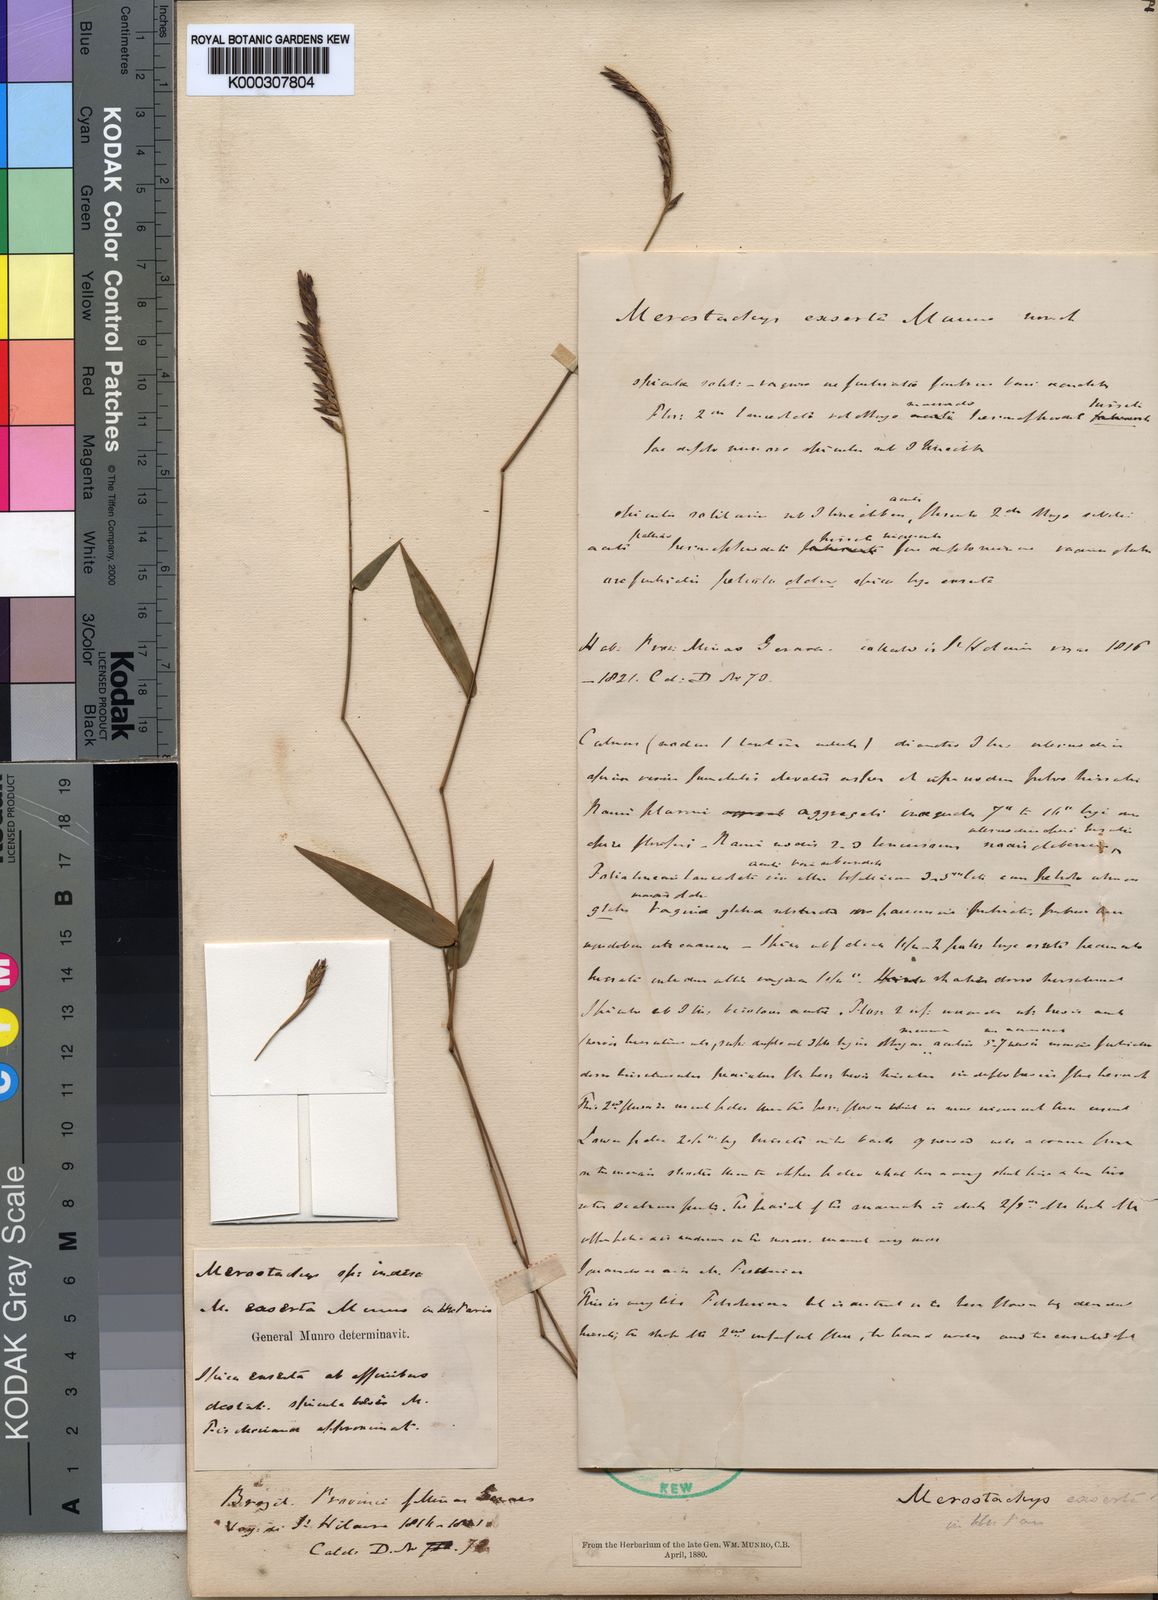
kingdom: Plantae
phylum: Tracheophyta
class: Liliopsida
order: Poales
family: Poaceae
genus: Merostachys
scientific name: Merostachys exserta
